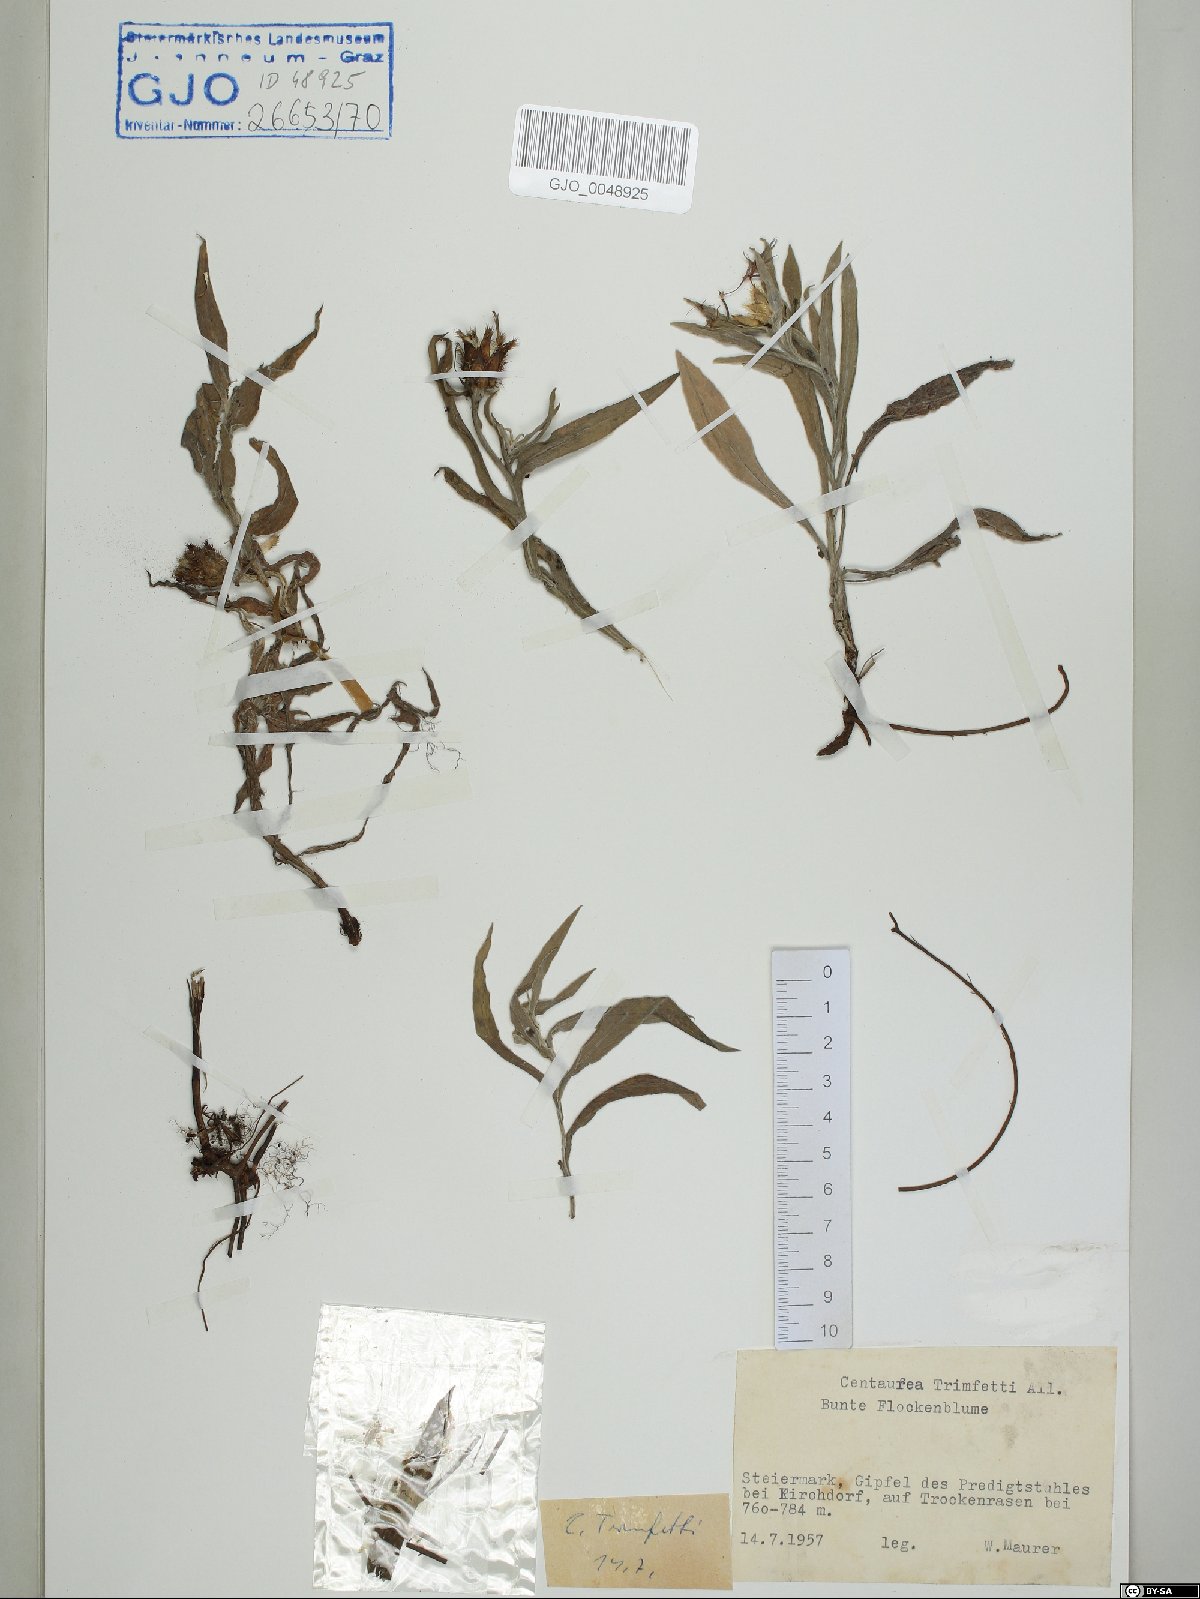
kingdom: Plantae
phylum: Tracheophyta
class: Magnoliopsida
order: Asterales
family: Asteraceae
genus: Centaurea
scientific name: Centaurea triumfettii
